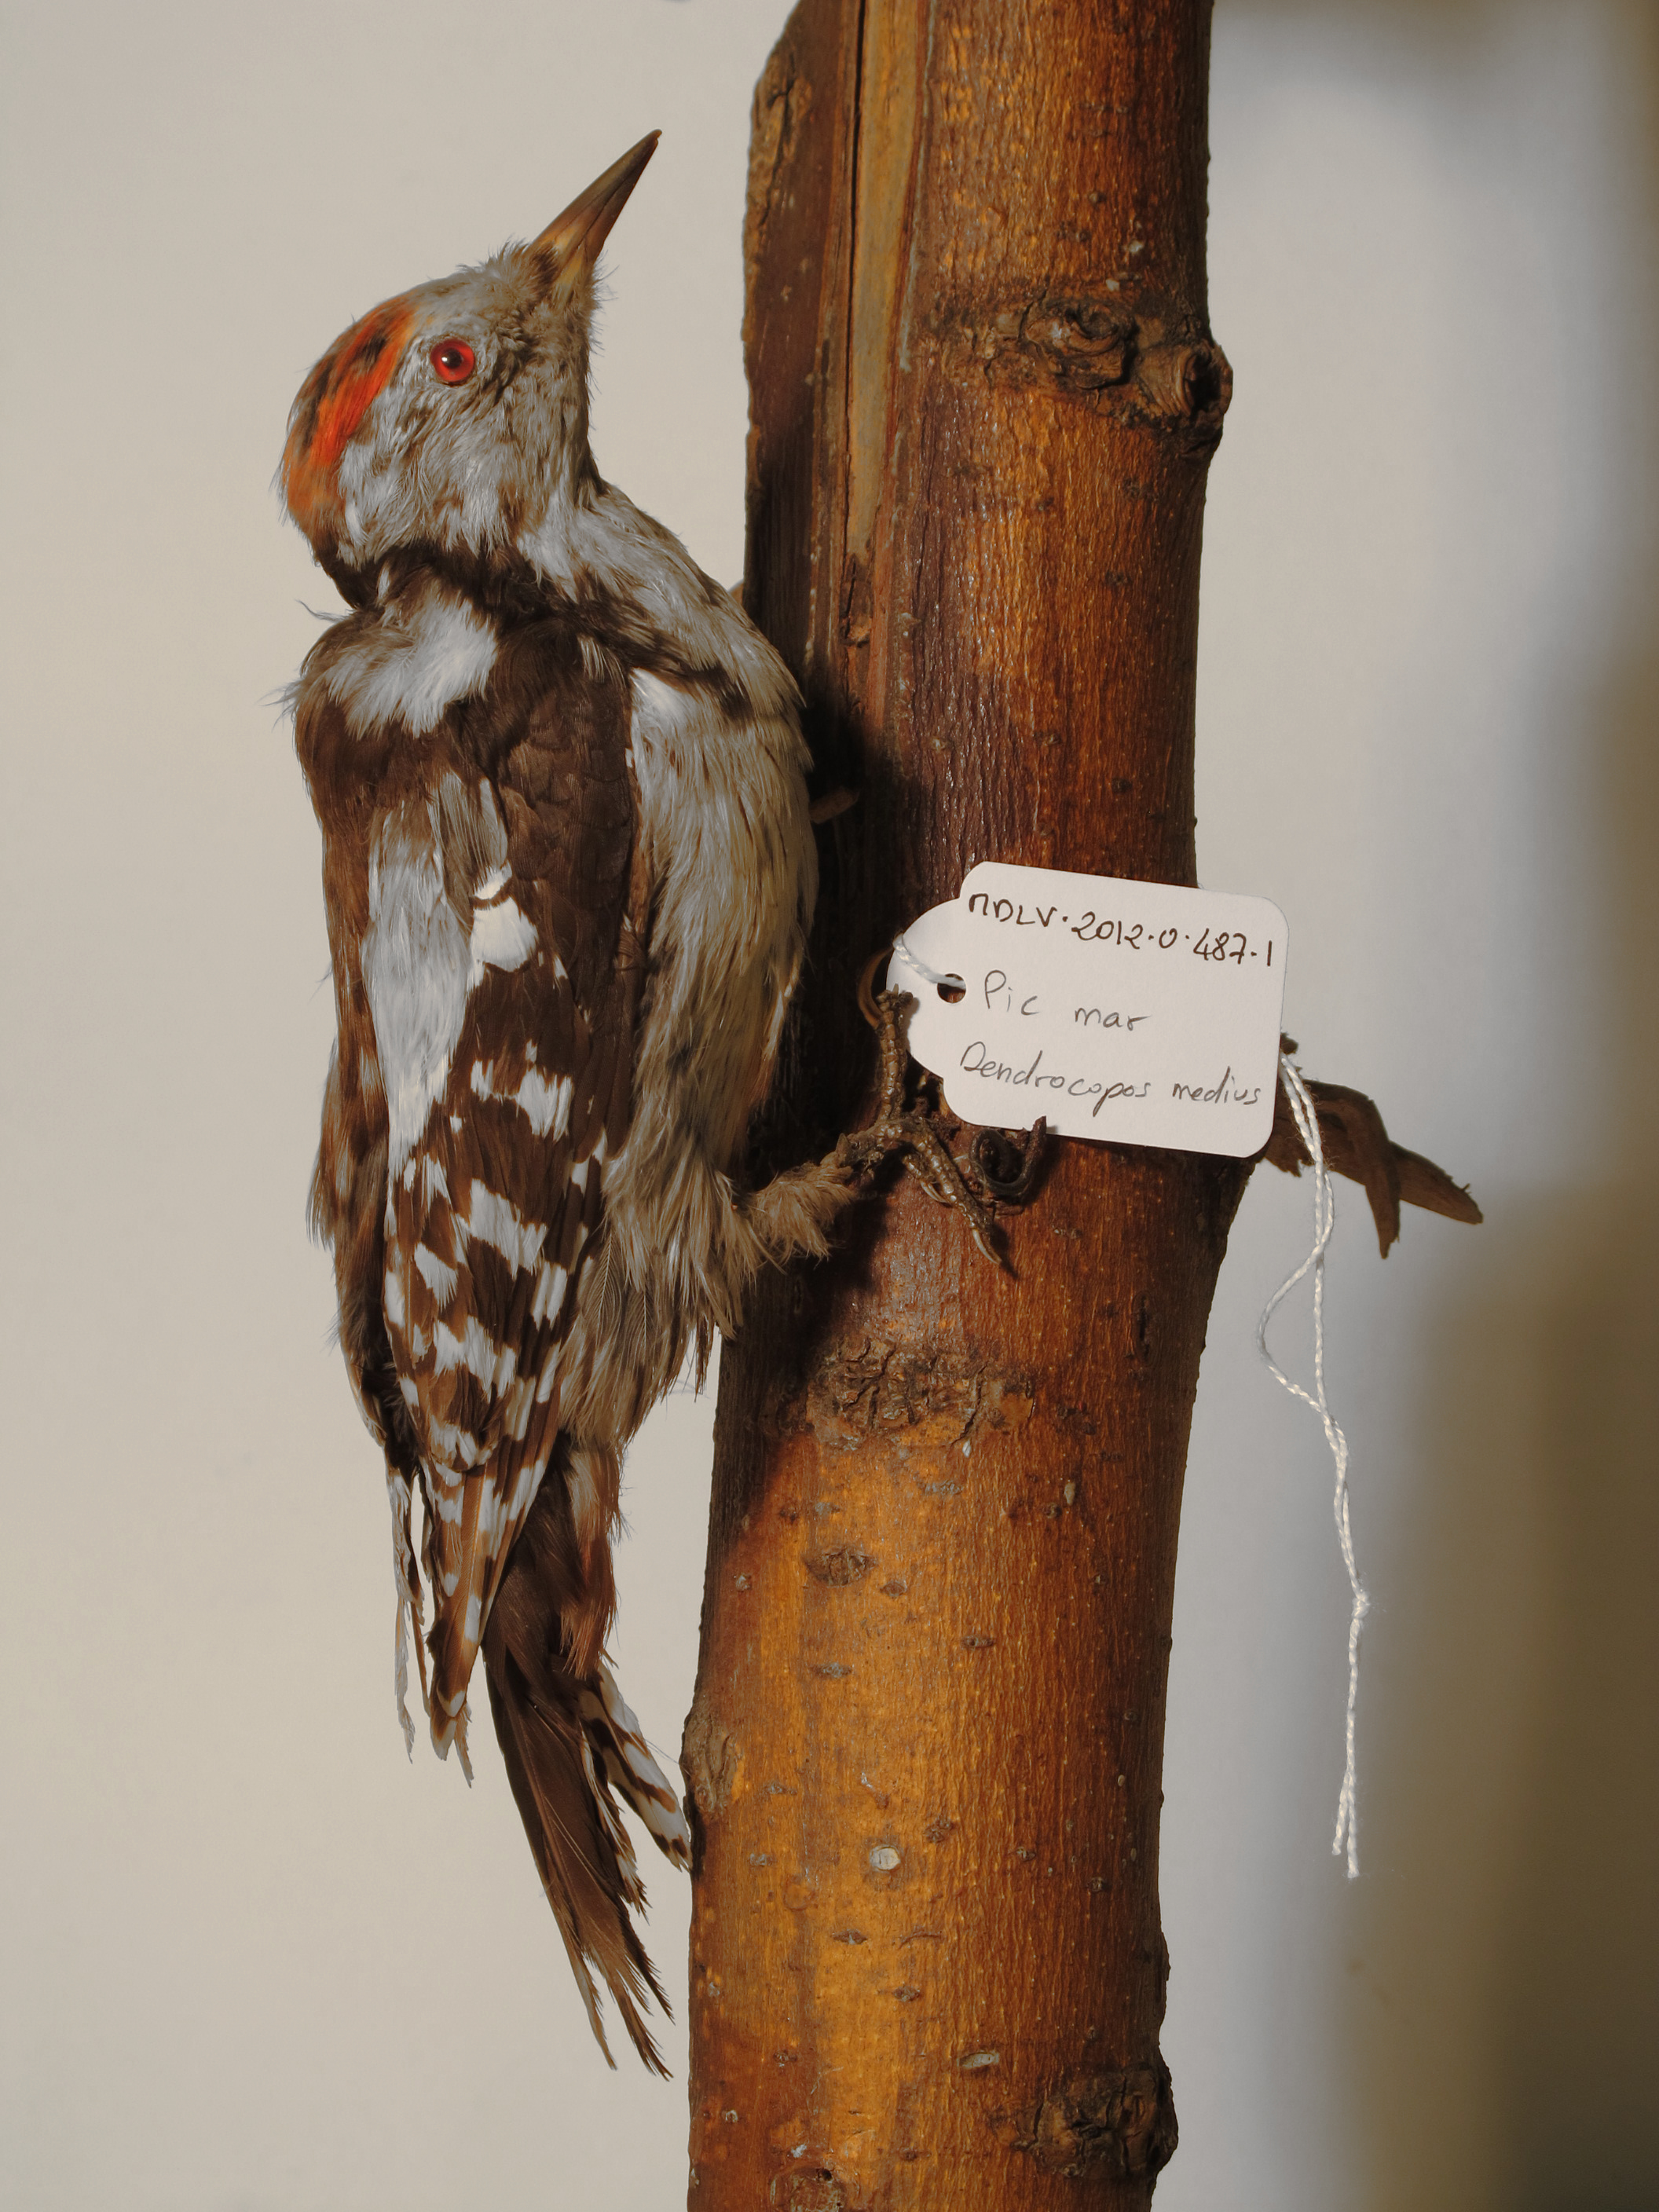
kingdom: Animalia
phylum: Chordata
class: Aves
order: Piciformes
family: Picidae
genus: Dendrocoptes
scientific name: Dendrocoptes medius
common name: Middle Spotted Woodpecker
